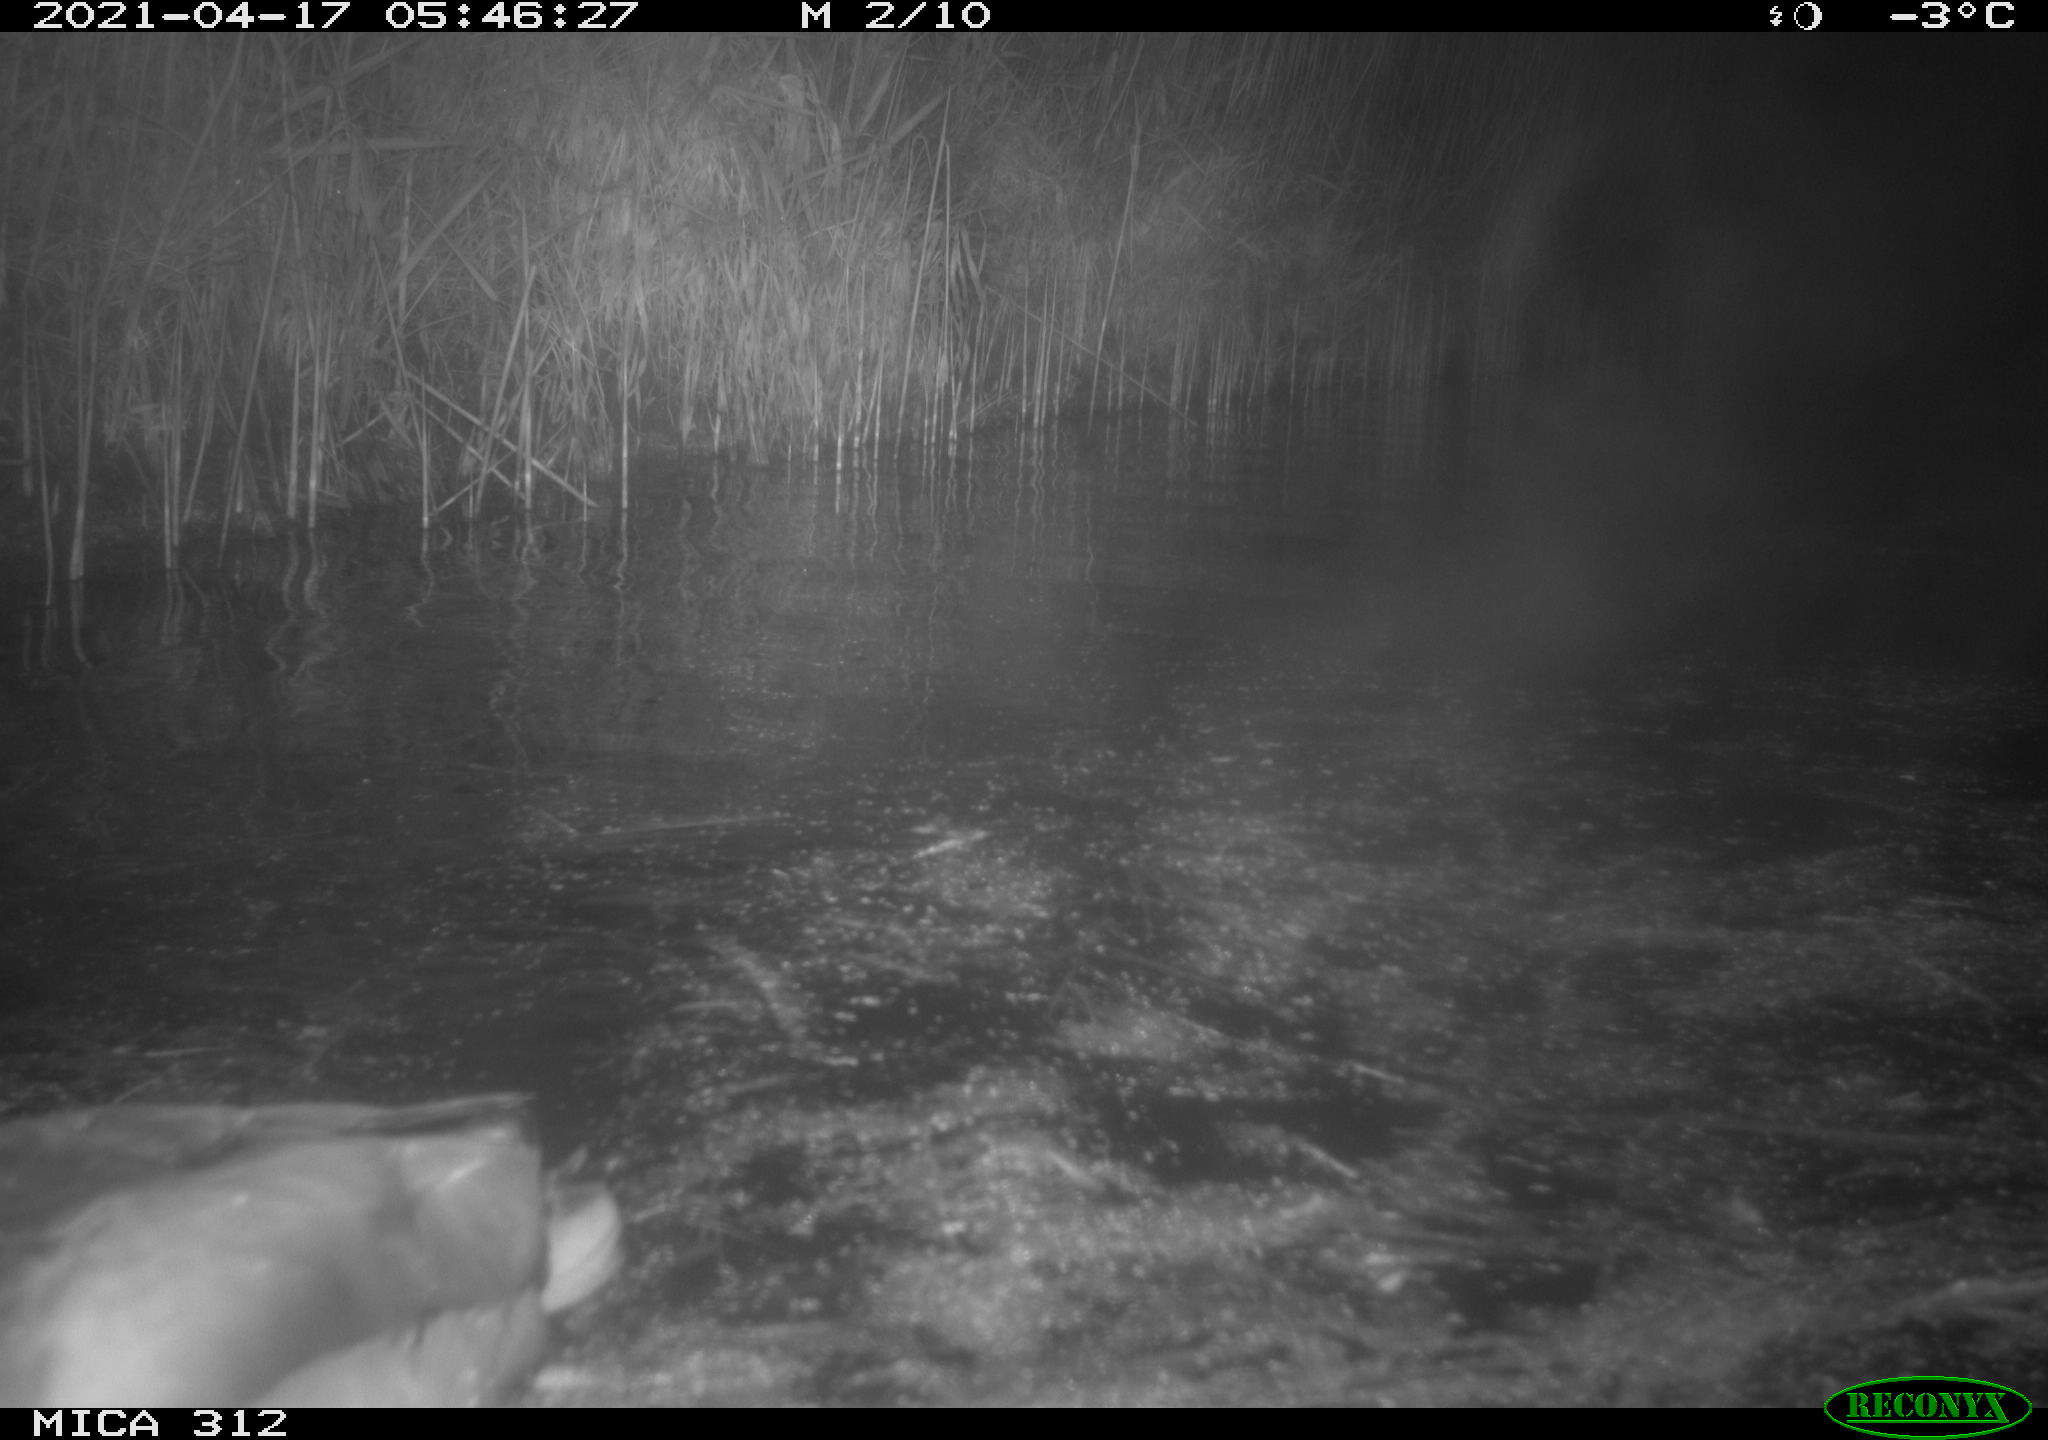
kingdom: Animalia
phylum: Chordata
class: Aves
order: Anseriformes
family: Anatidae
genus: Anas
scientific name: Anas platyrhynchos
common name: Mallard
